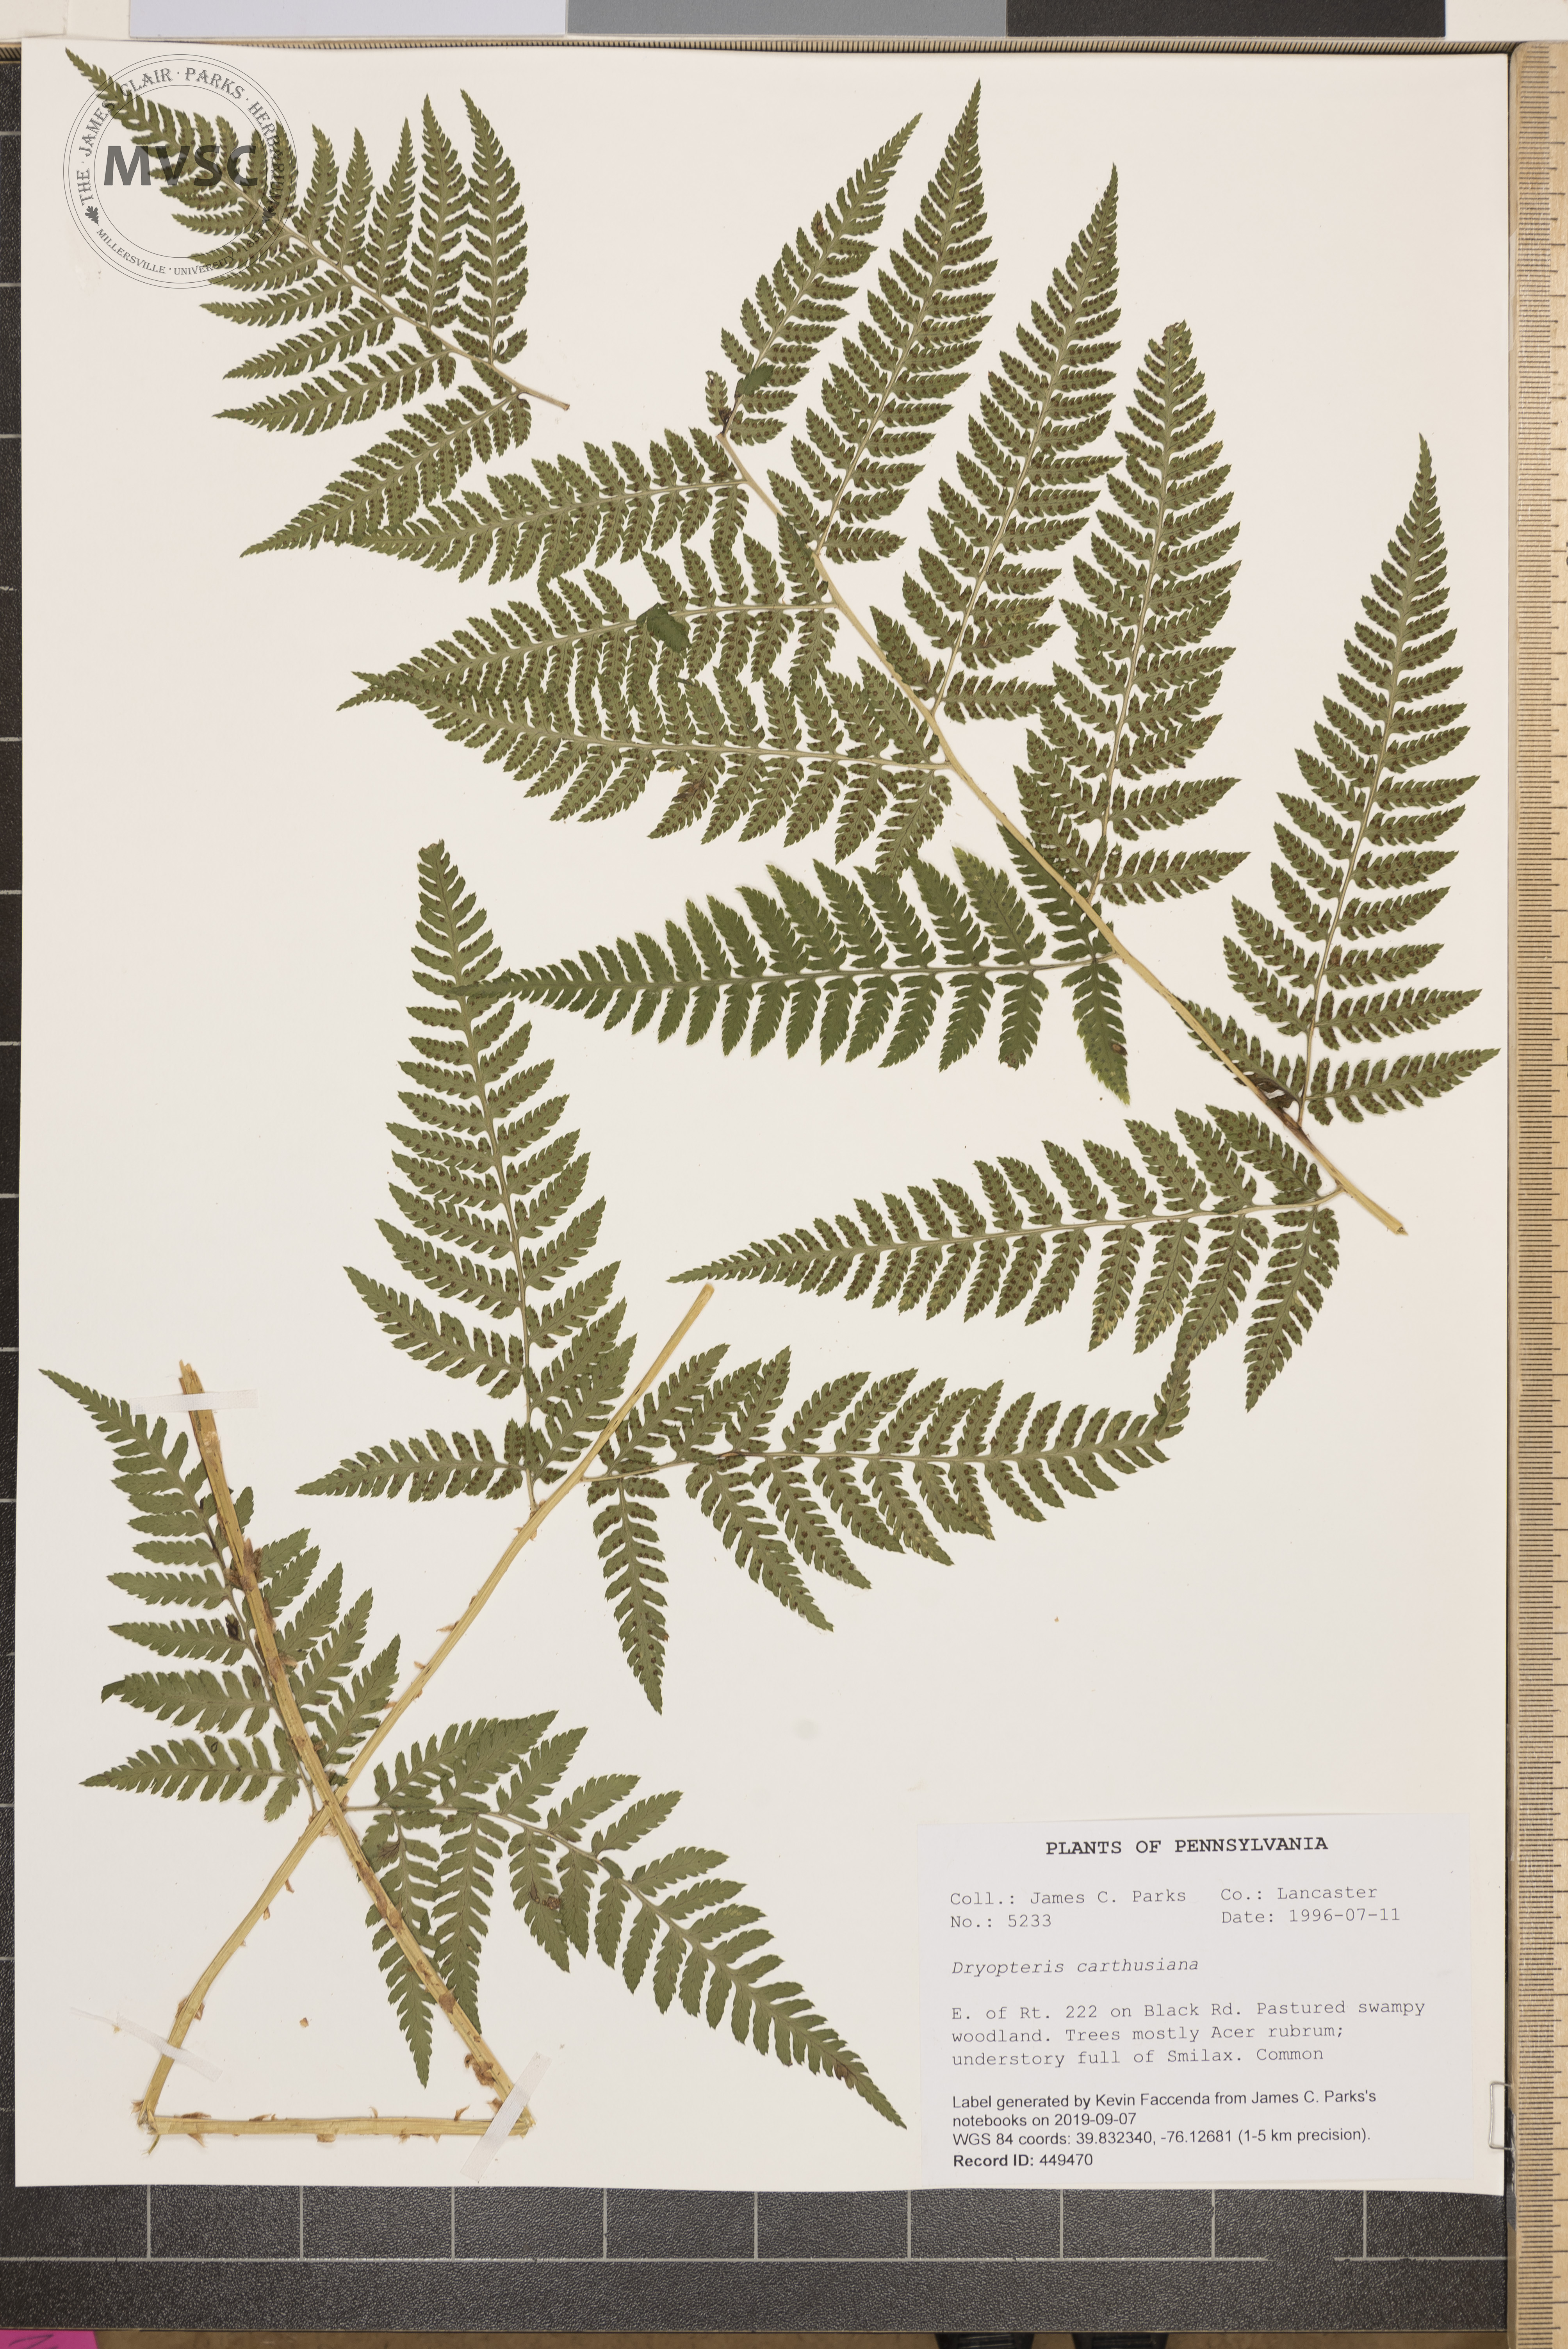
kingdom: Plantae
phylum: Tracheophyta
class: Polypodiopsida
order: Polypodiales
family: Dryopteridaceae
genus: Dryopteris
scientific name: Dryopteris carthusiana
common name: Narrow buckler-fern
